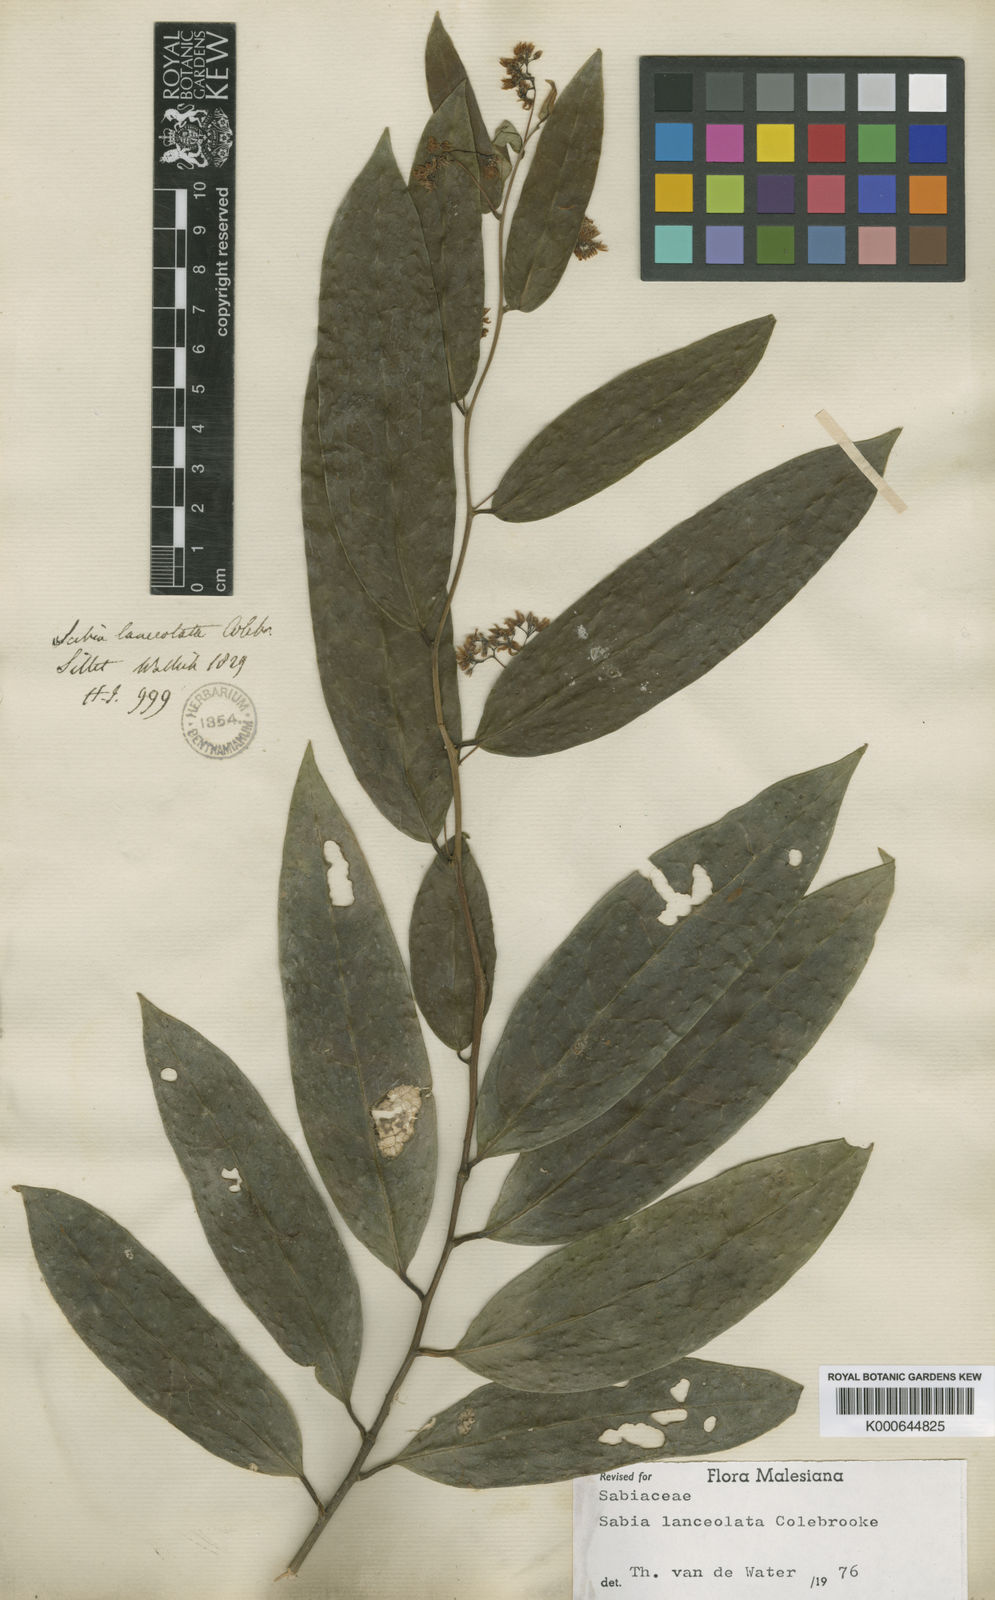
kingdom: Plantae
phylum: Tracheophyta
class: Magnoliopsida
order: Proteales
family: Sabiaceae
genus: Sabia
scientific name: Sabia lanceolata
